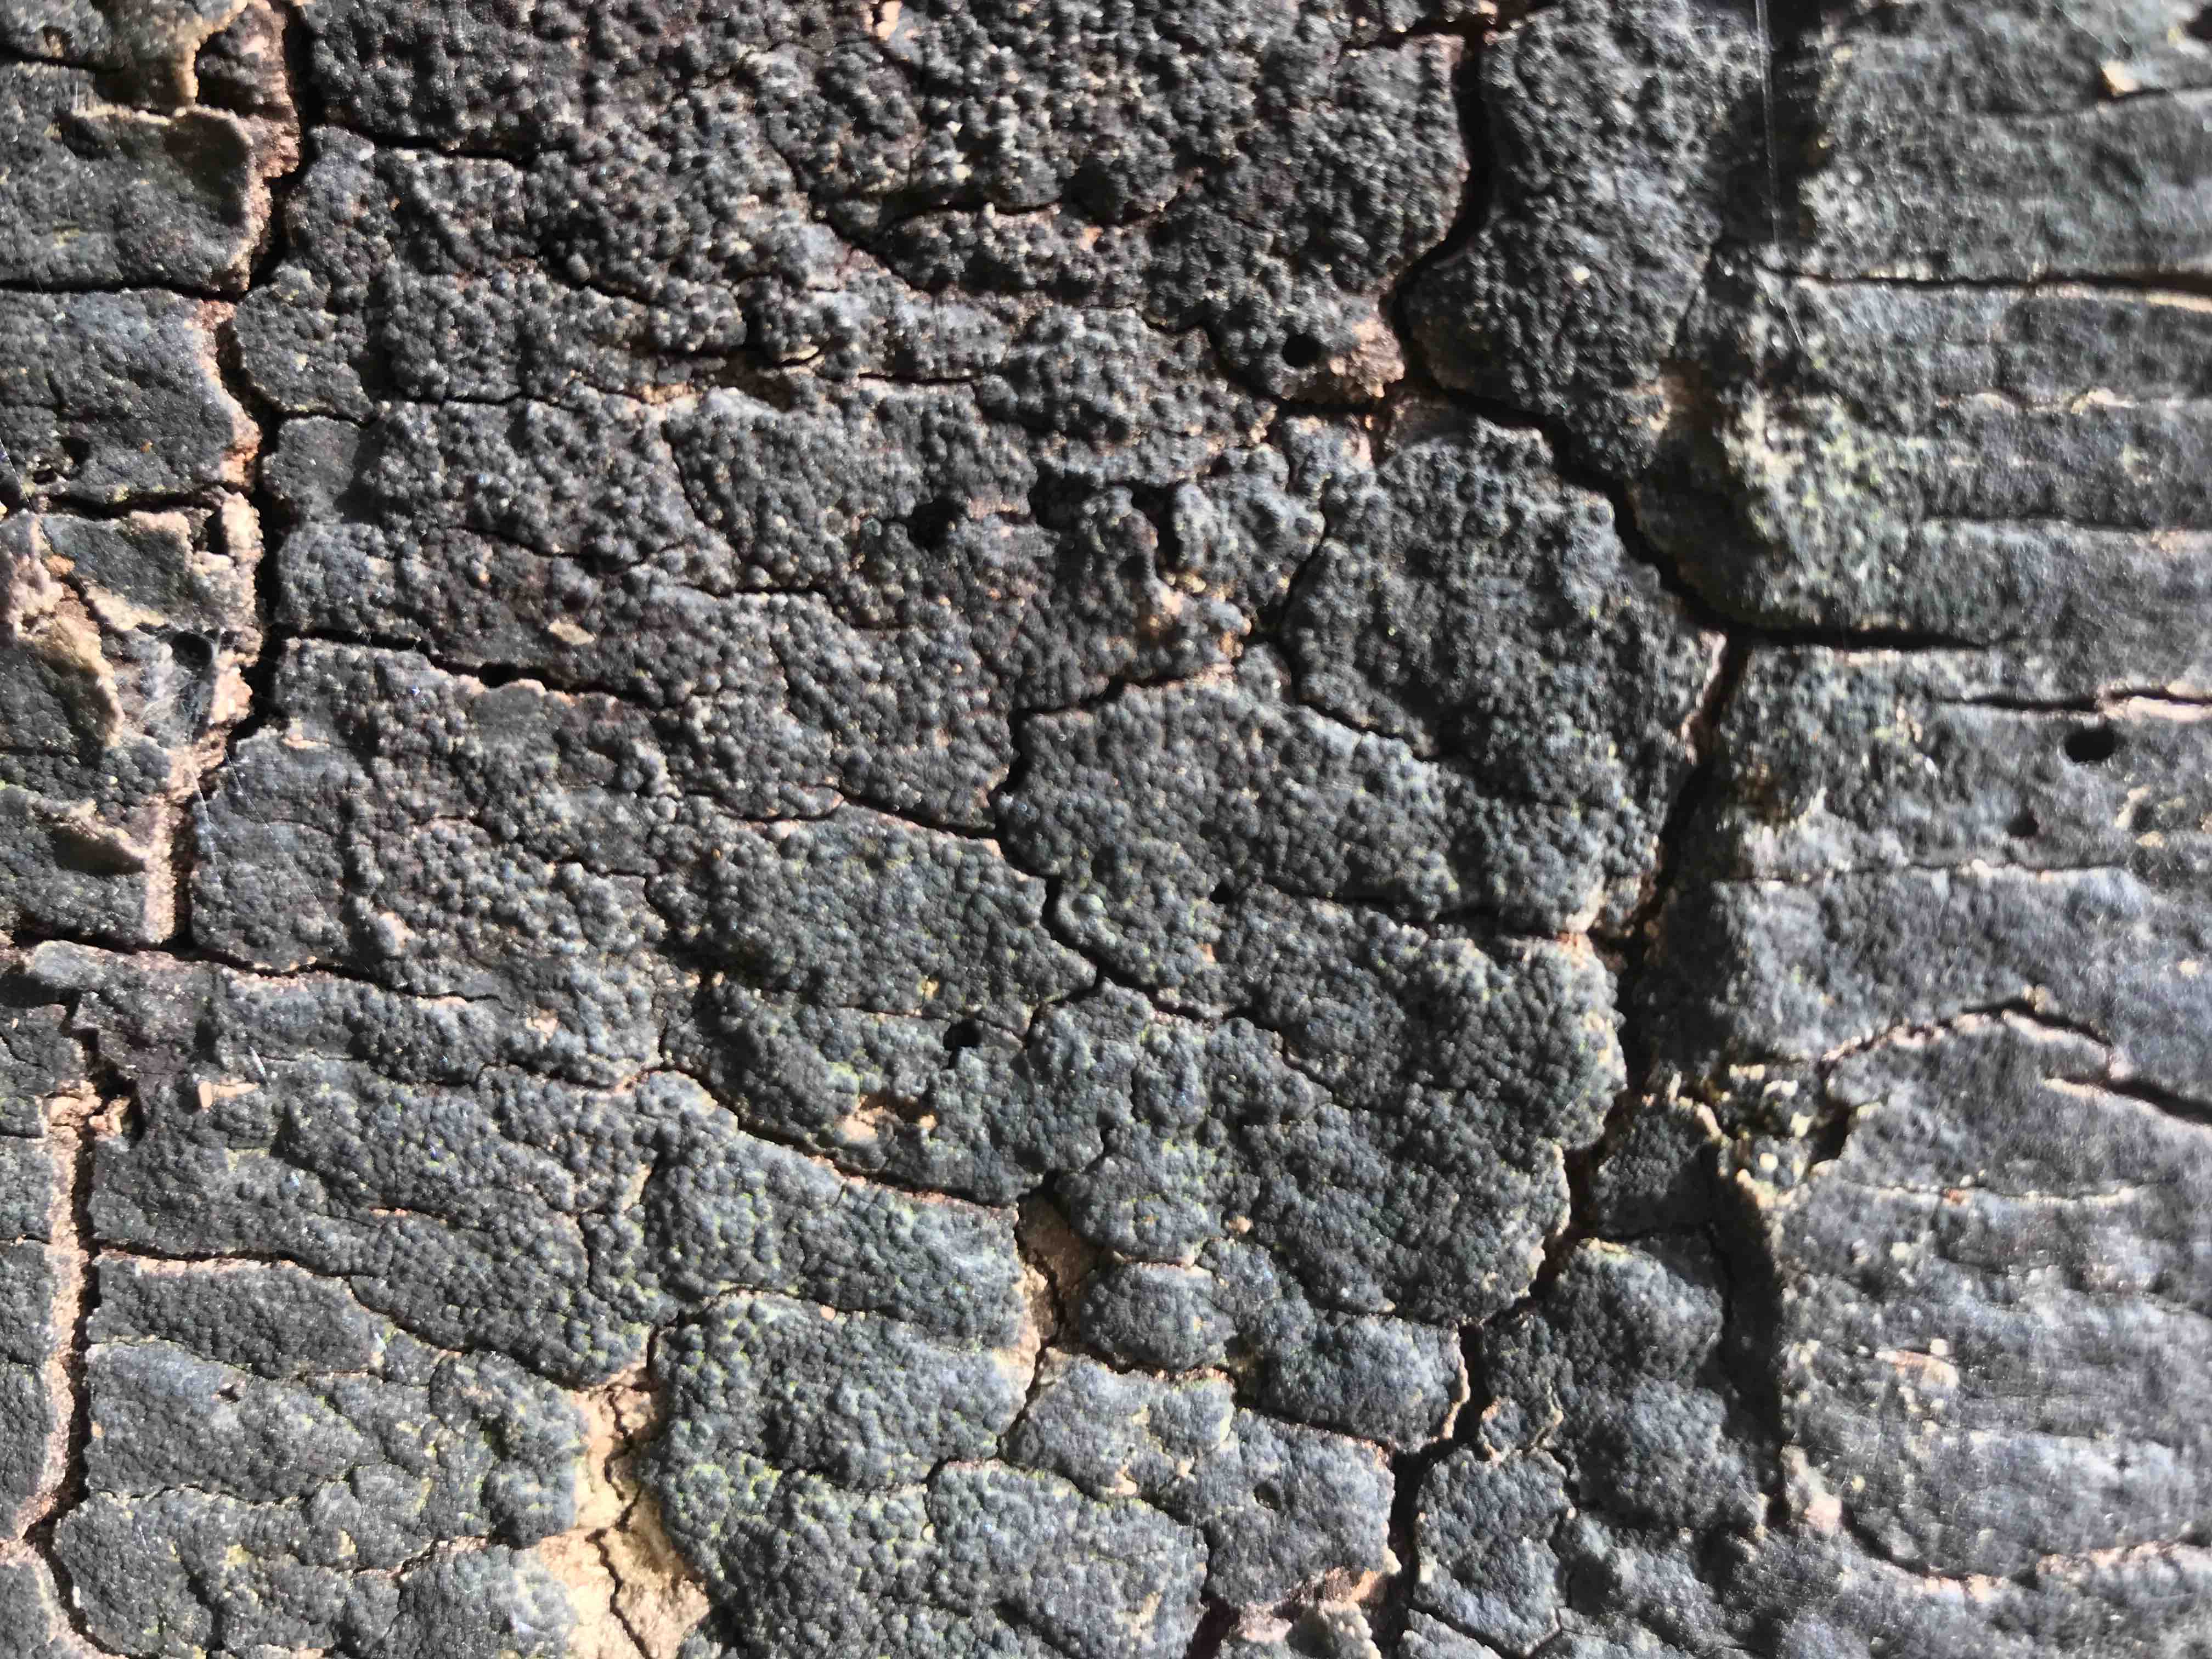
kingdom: Fungi
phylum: Ascomycota
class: Sordariomycetes
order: Xylariales
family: Diatrypaceae
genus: Eutypa
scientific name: Eutypa spinosa
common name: grov kulskorpe
